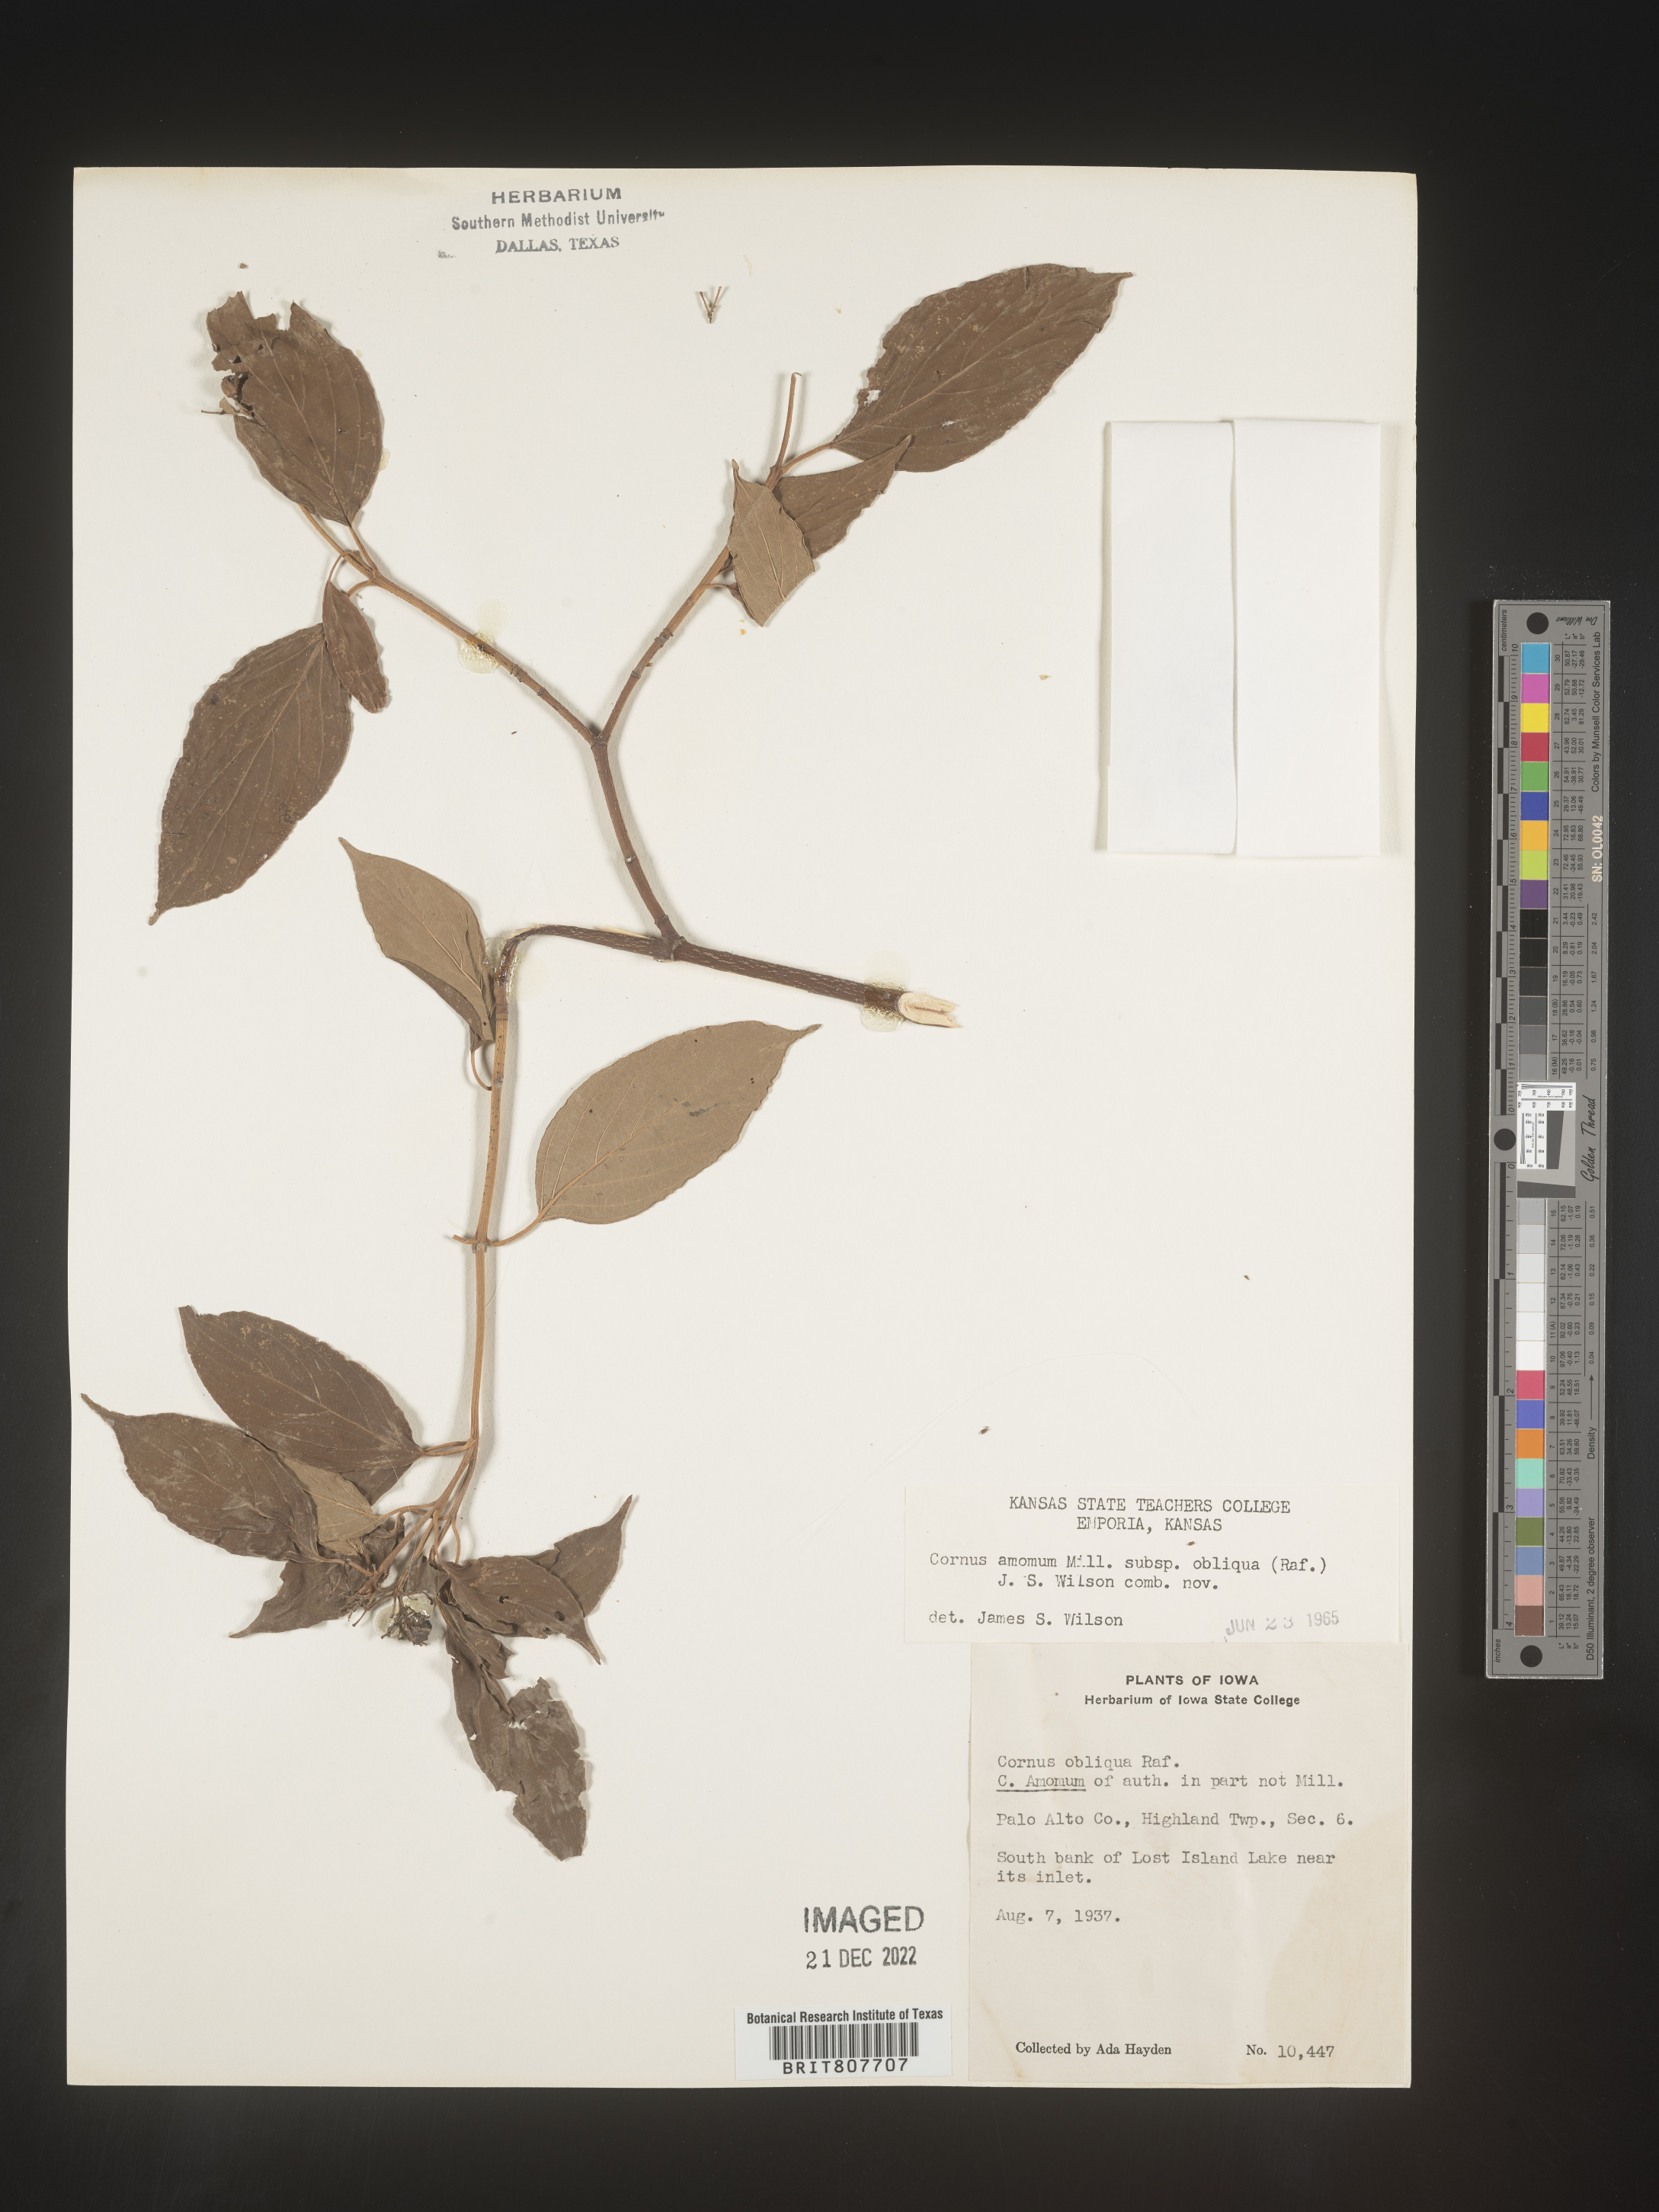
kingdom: Plantae
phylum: Tracheophyta
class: Magnoliopsida
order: Cornales
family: Cornaceae
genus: Cornus
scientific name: Cornus obliqua
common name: Pale dogwood
